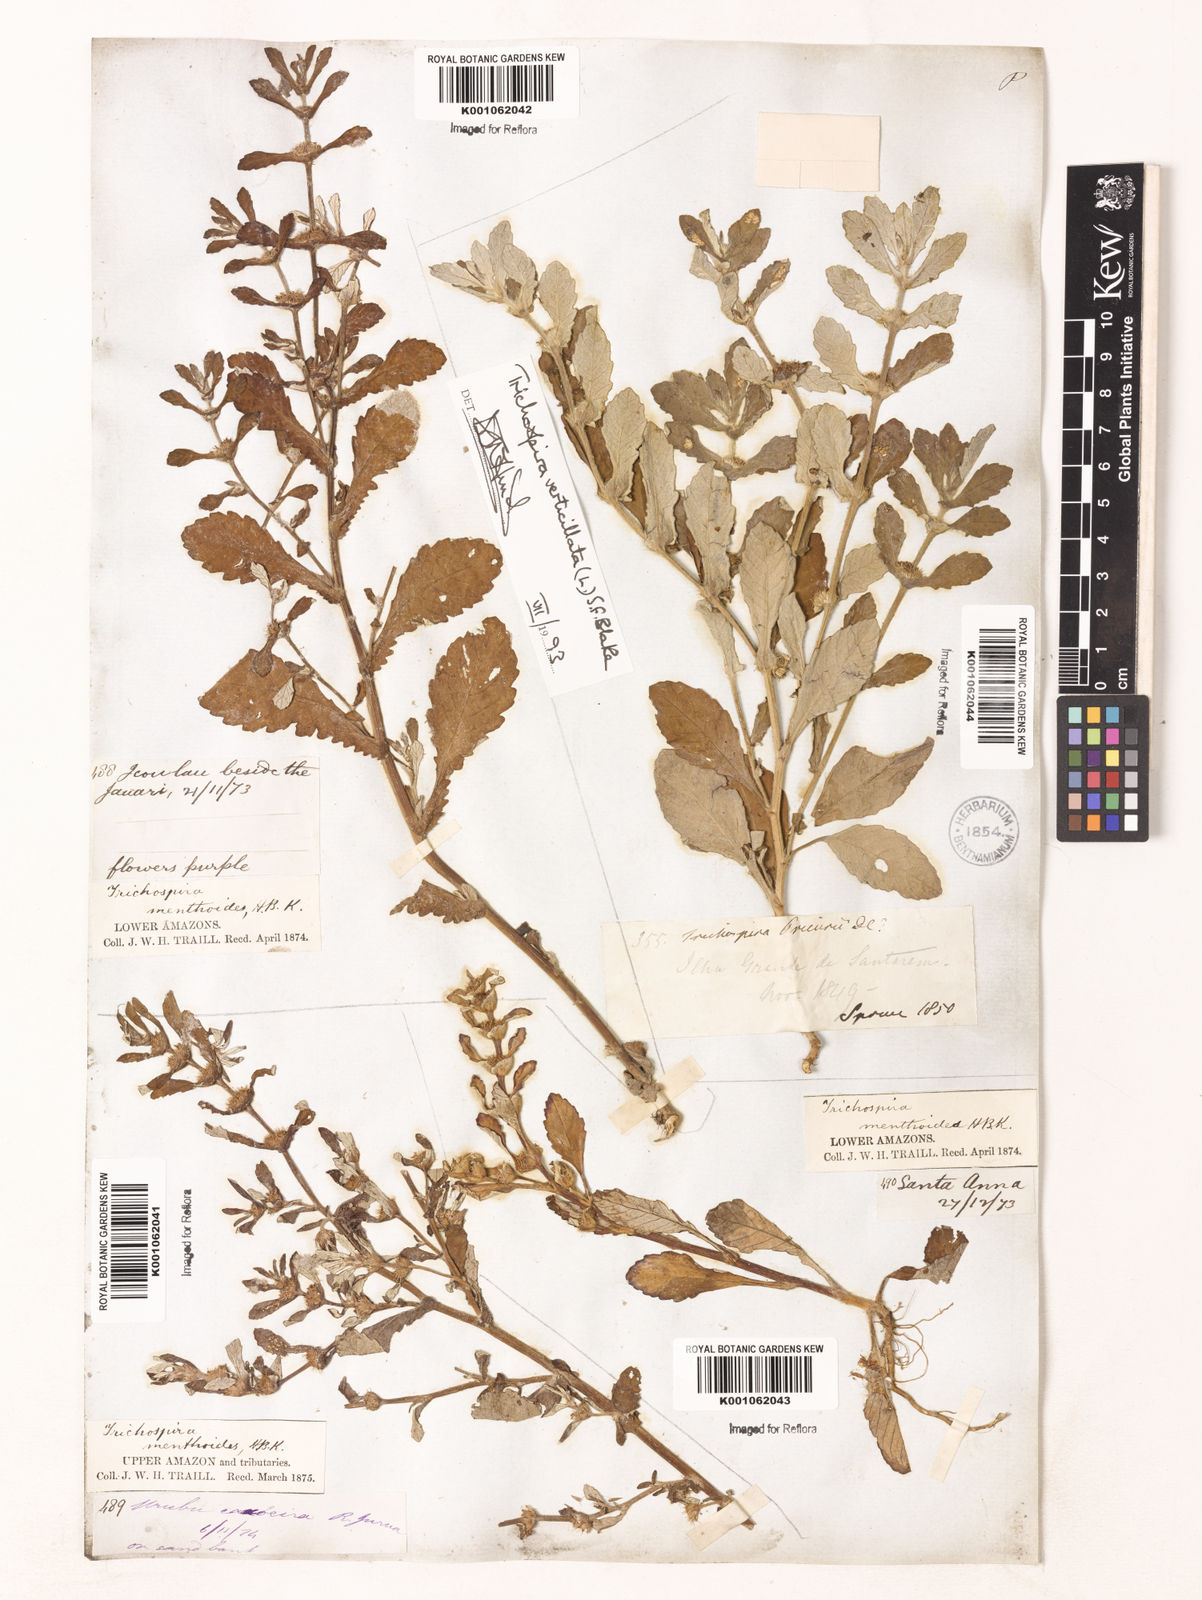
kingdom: Chromista
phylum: Ciliophora
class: Kinetofragminophora
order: Trichostomatida
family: Trichospiridae
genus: Trichospira
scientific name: Trichospira verticillata
